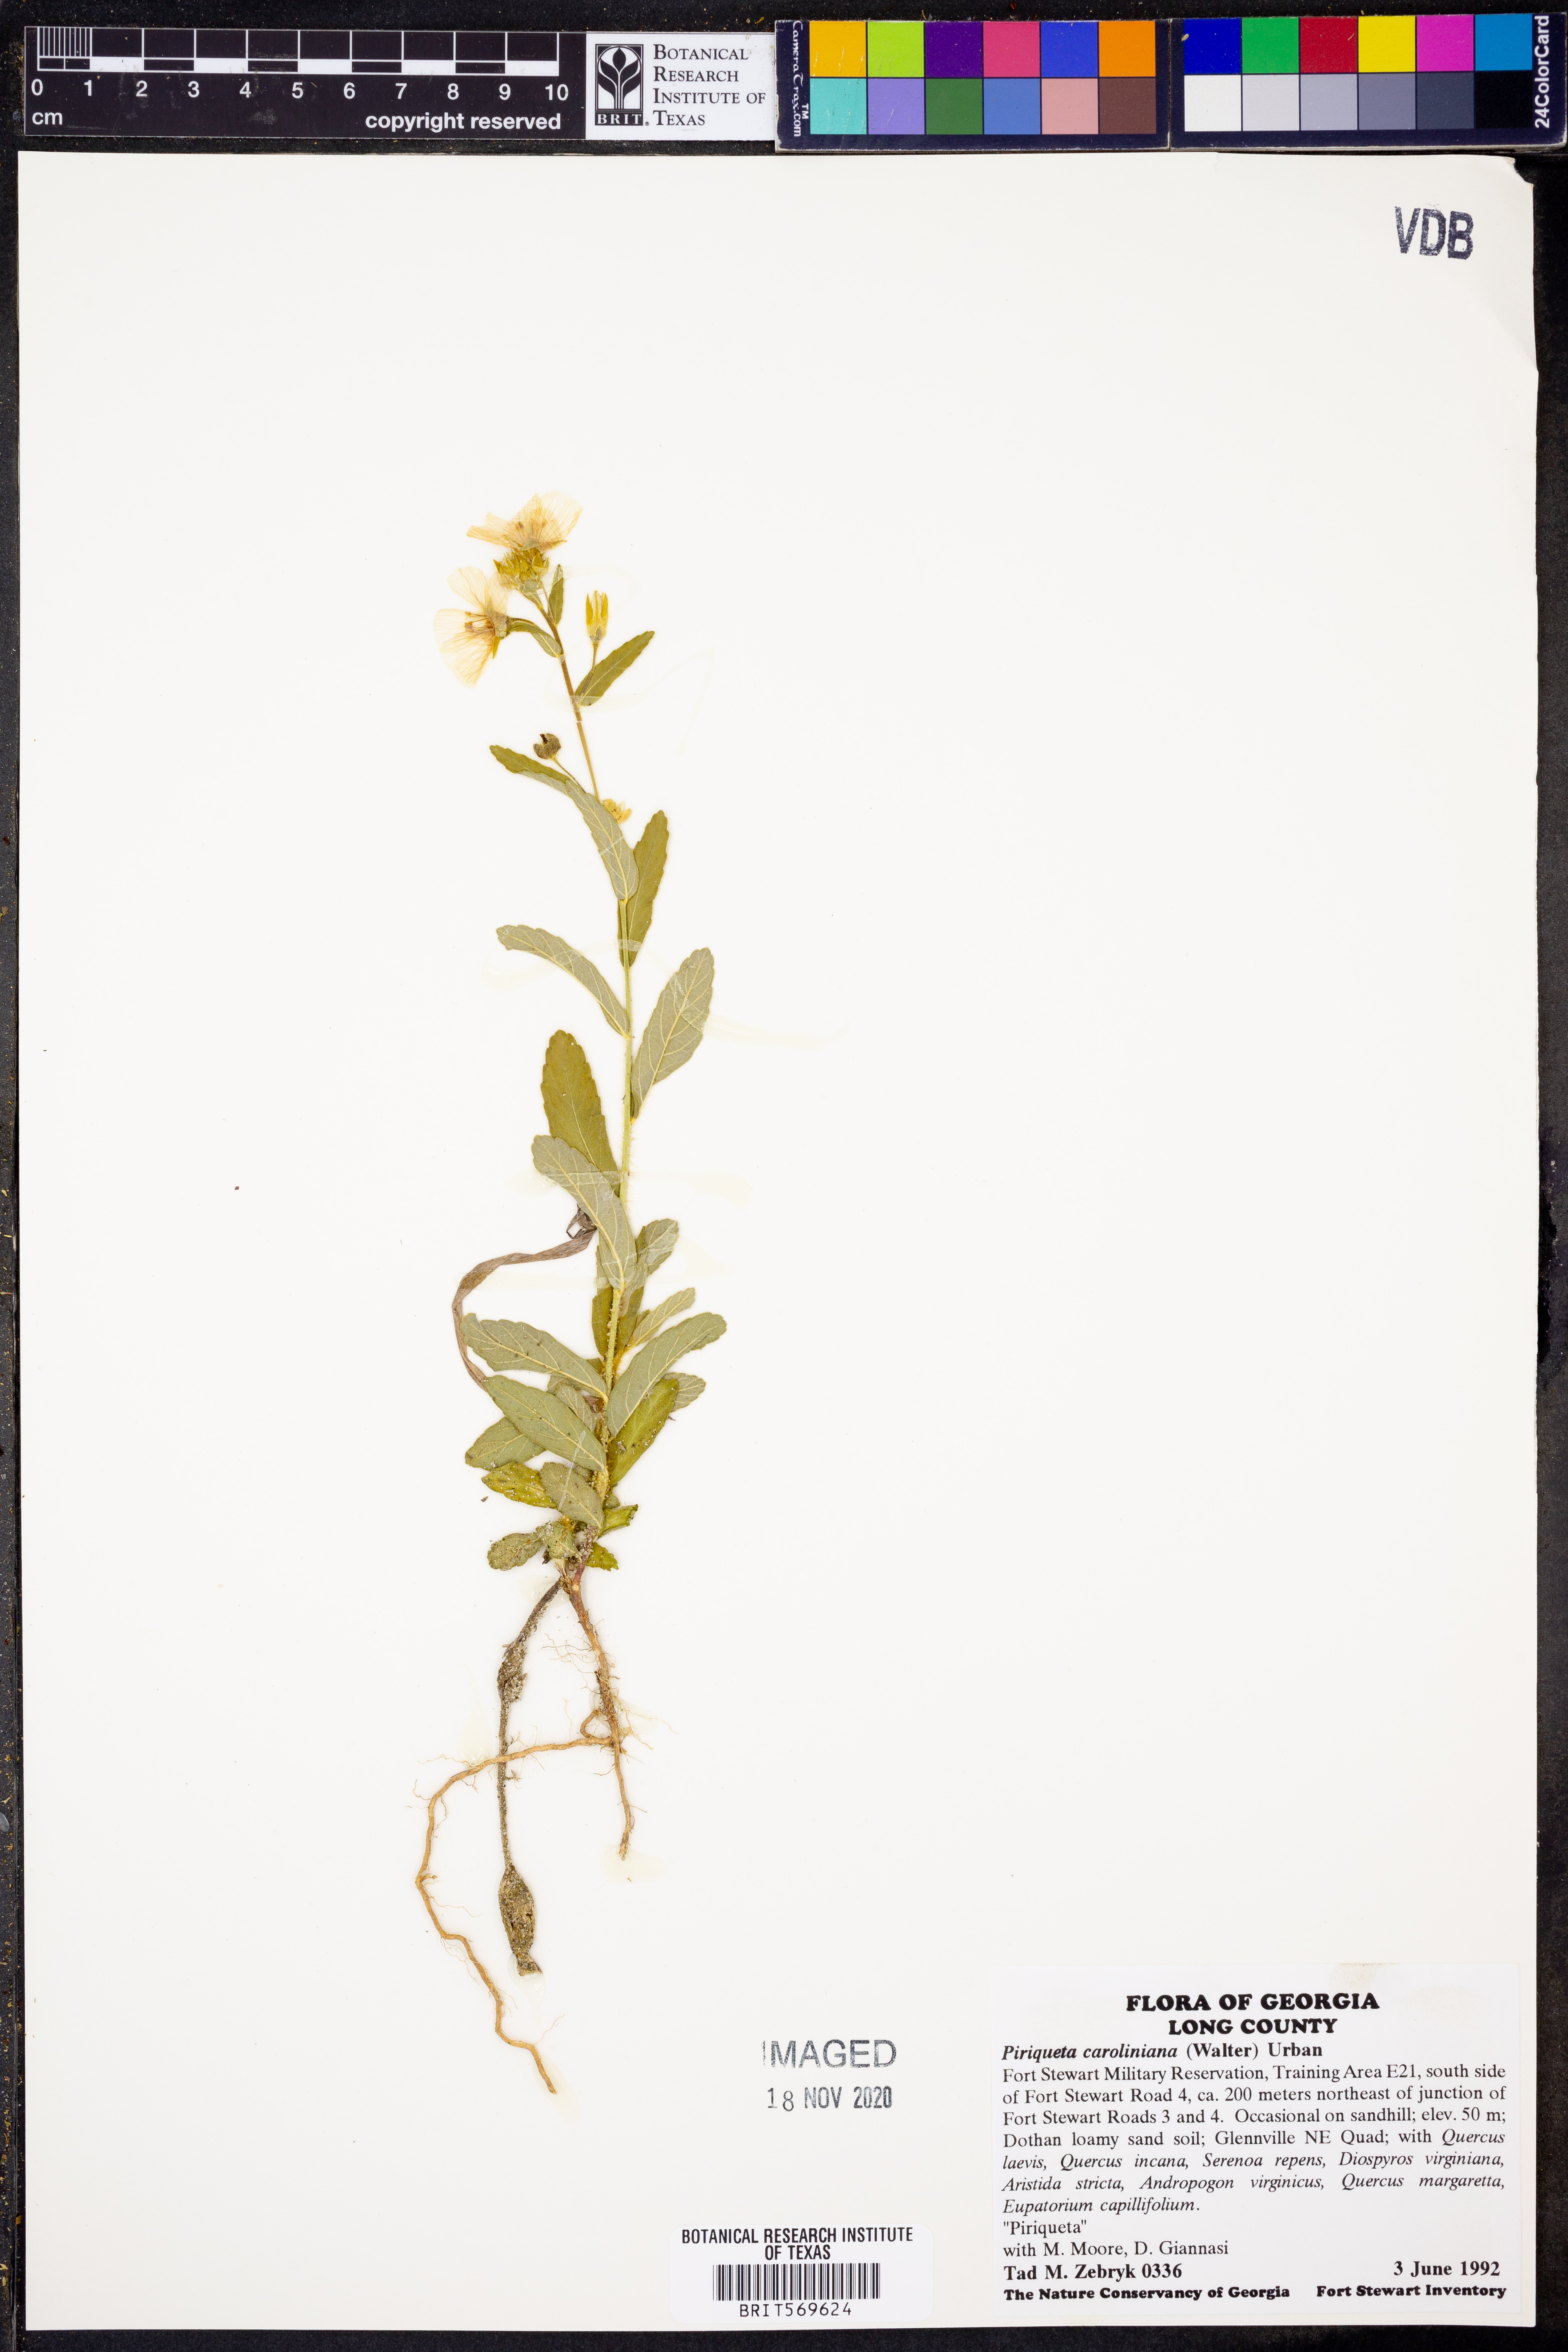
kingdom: Plantae
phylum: Tracheophyta
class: Magnoliopsida
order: Malpighiales
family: Turneraceae
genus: Piriqueta
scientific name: Piriqueta cistoides
